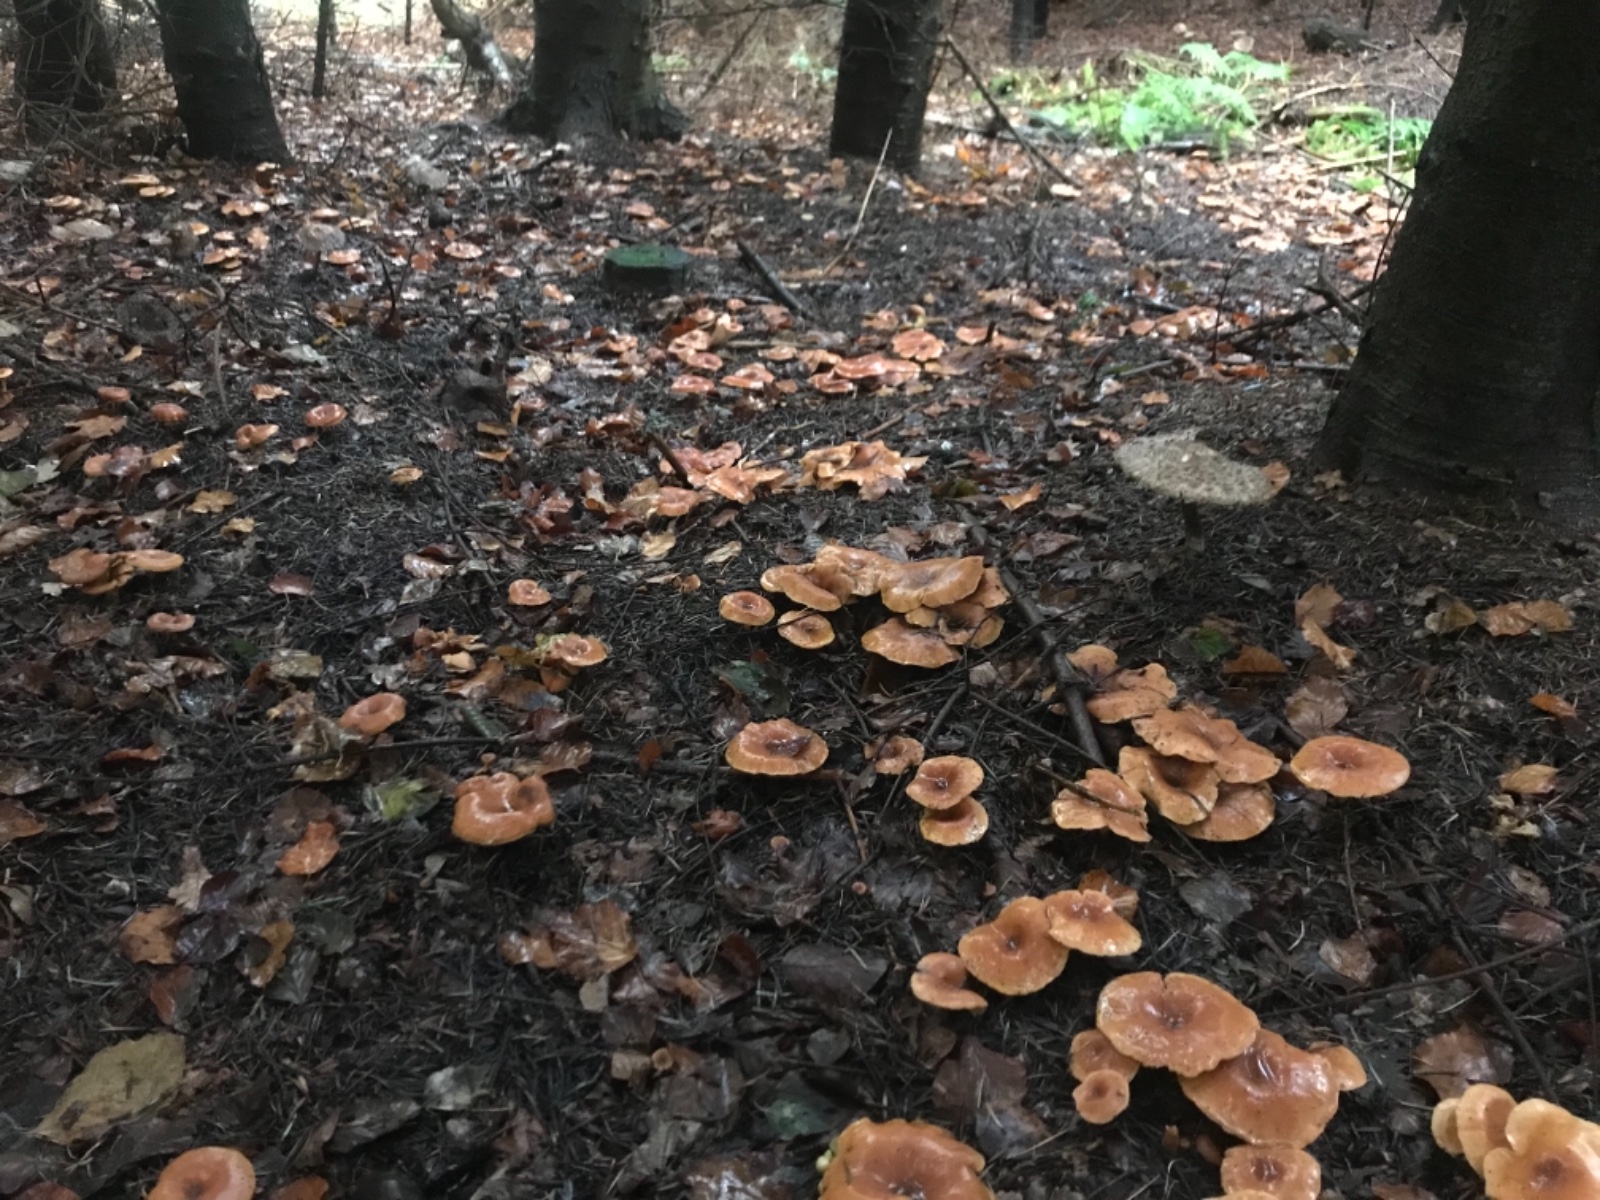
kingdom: Fungi
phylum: Basidiomycota
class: Agaricomycetes
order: Agaricales
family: Tricholomataceae
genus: Paralepista
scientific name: Paralepista flaccida
